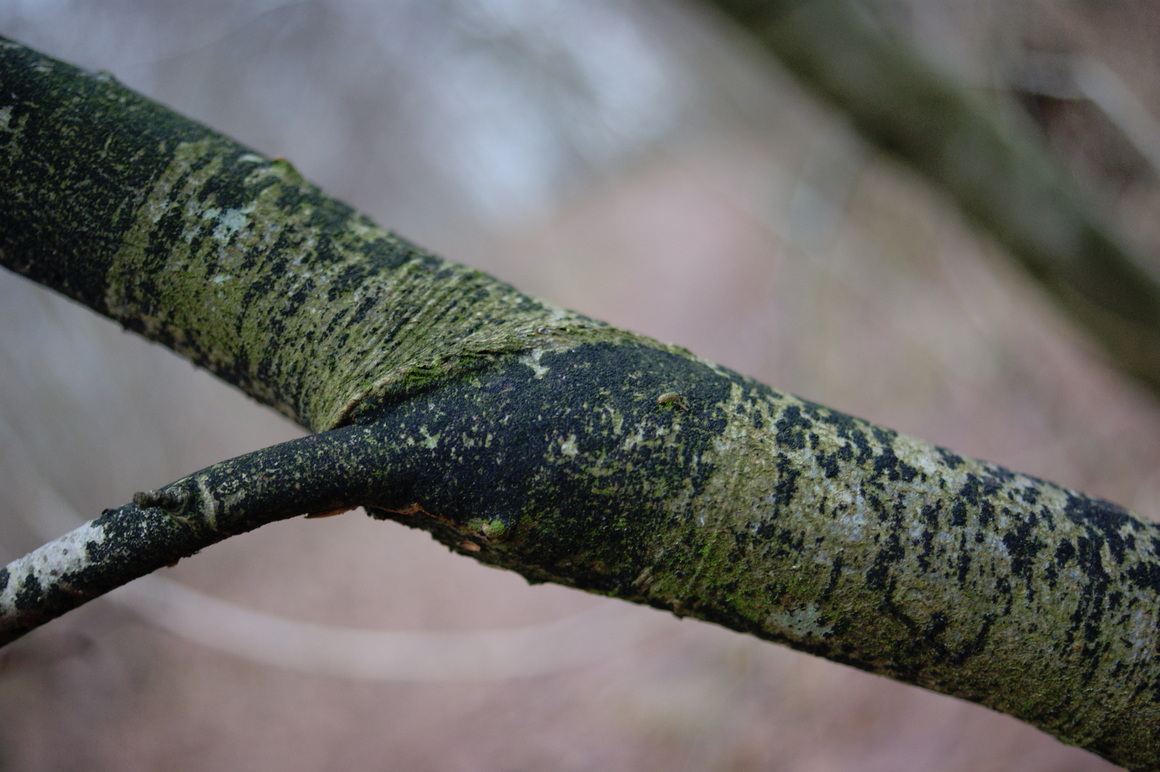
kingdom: Fungi
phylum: Ascomycota
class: Leotiomycetes
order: Rhytismatales
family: Ascodichaenaceae
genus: Ascodichaena
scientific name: Ascodichaena rugosa
